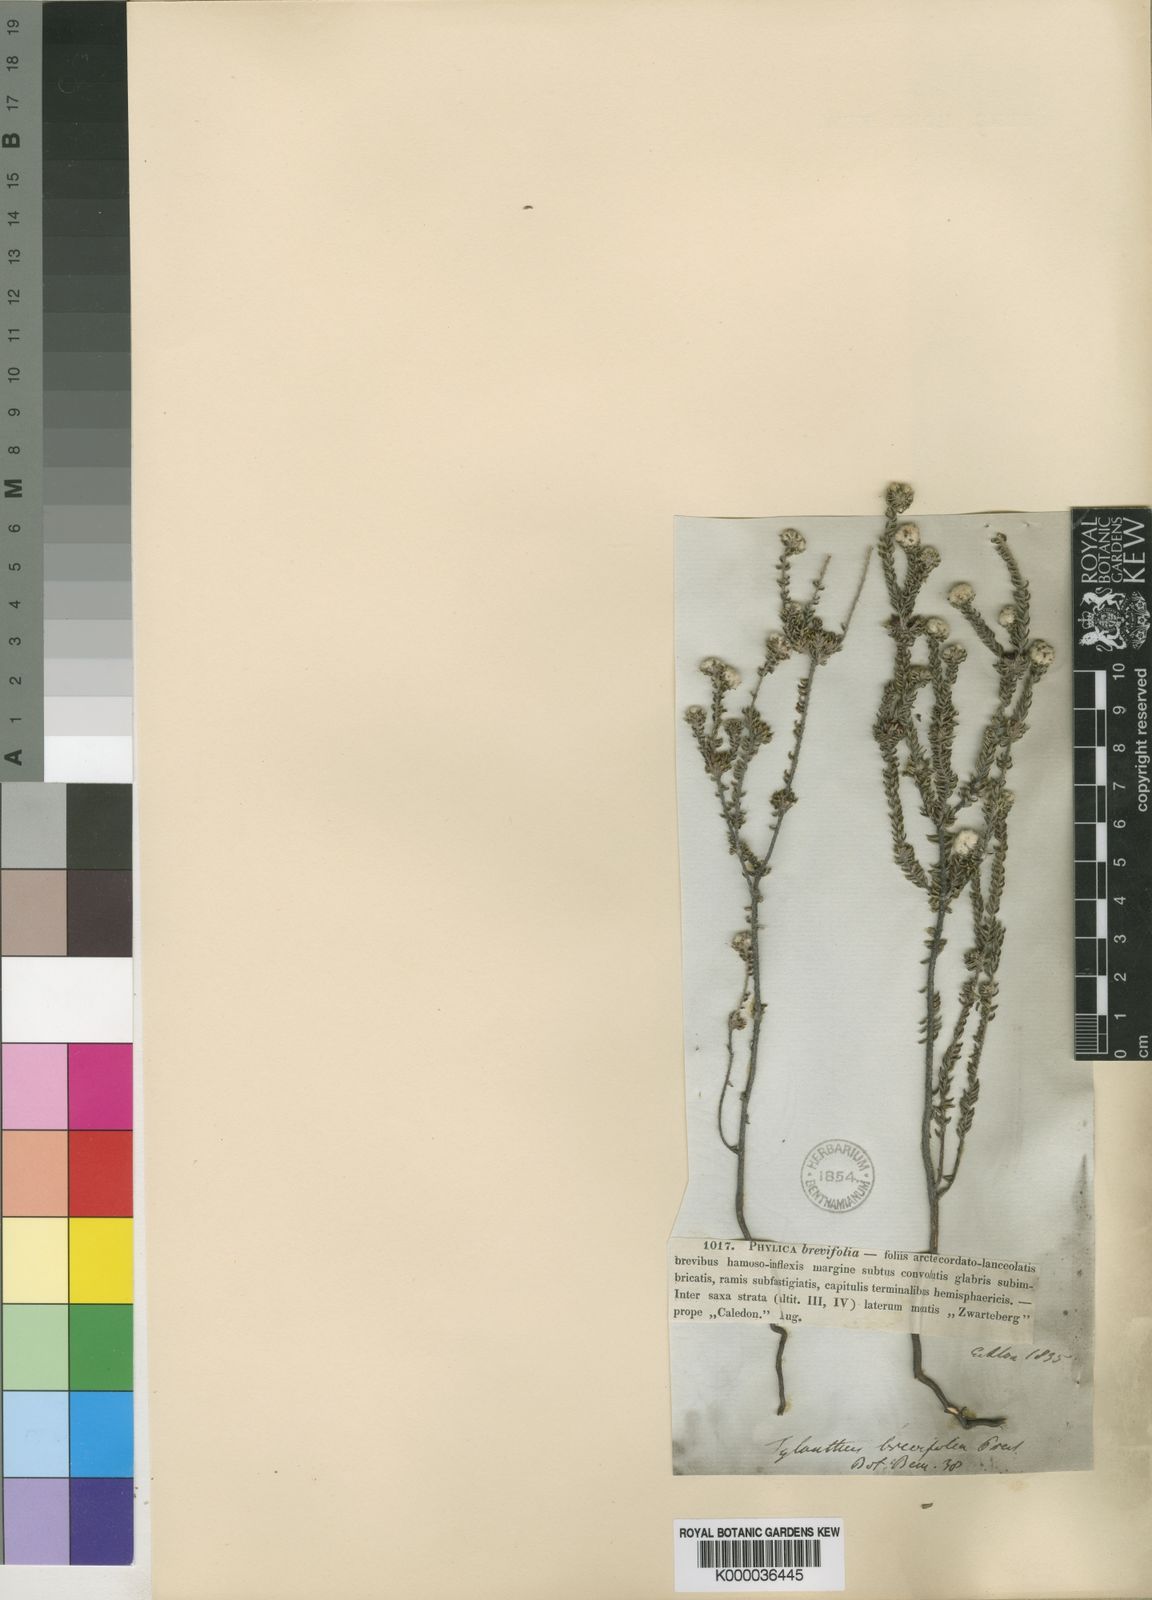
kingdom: Plantae
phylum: Tracheophyta
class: Magnoliopsida
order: Rosales
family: Rhamnaceae
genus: Phylica
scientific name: Phylica brevifolia
